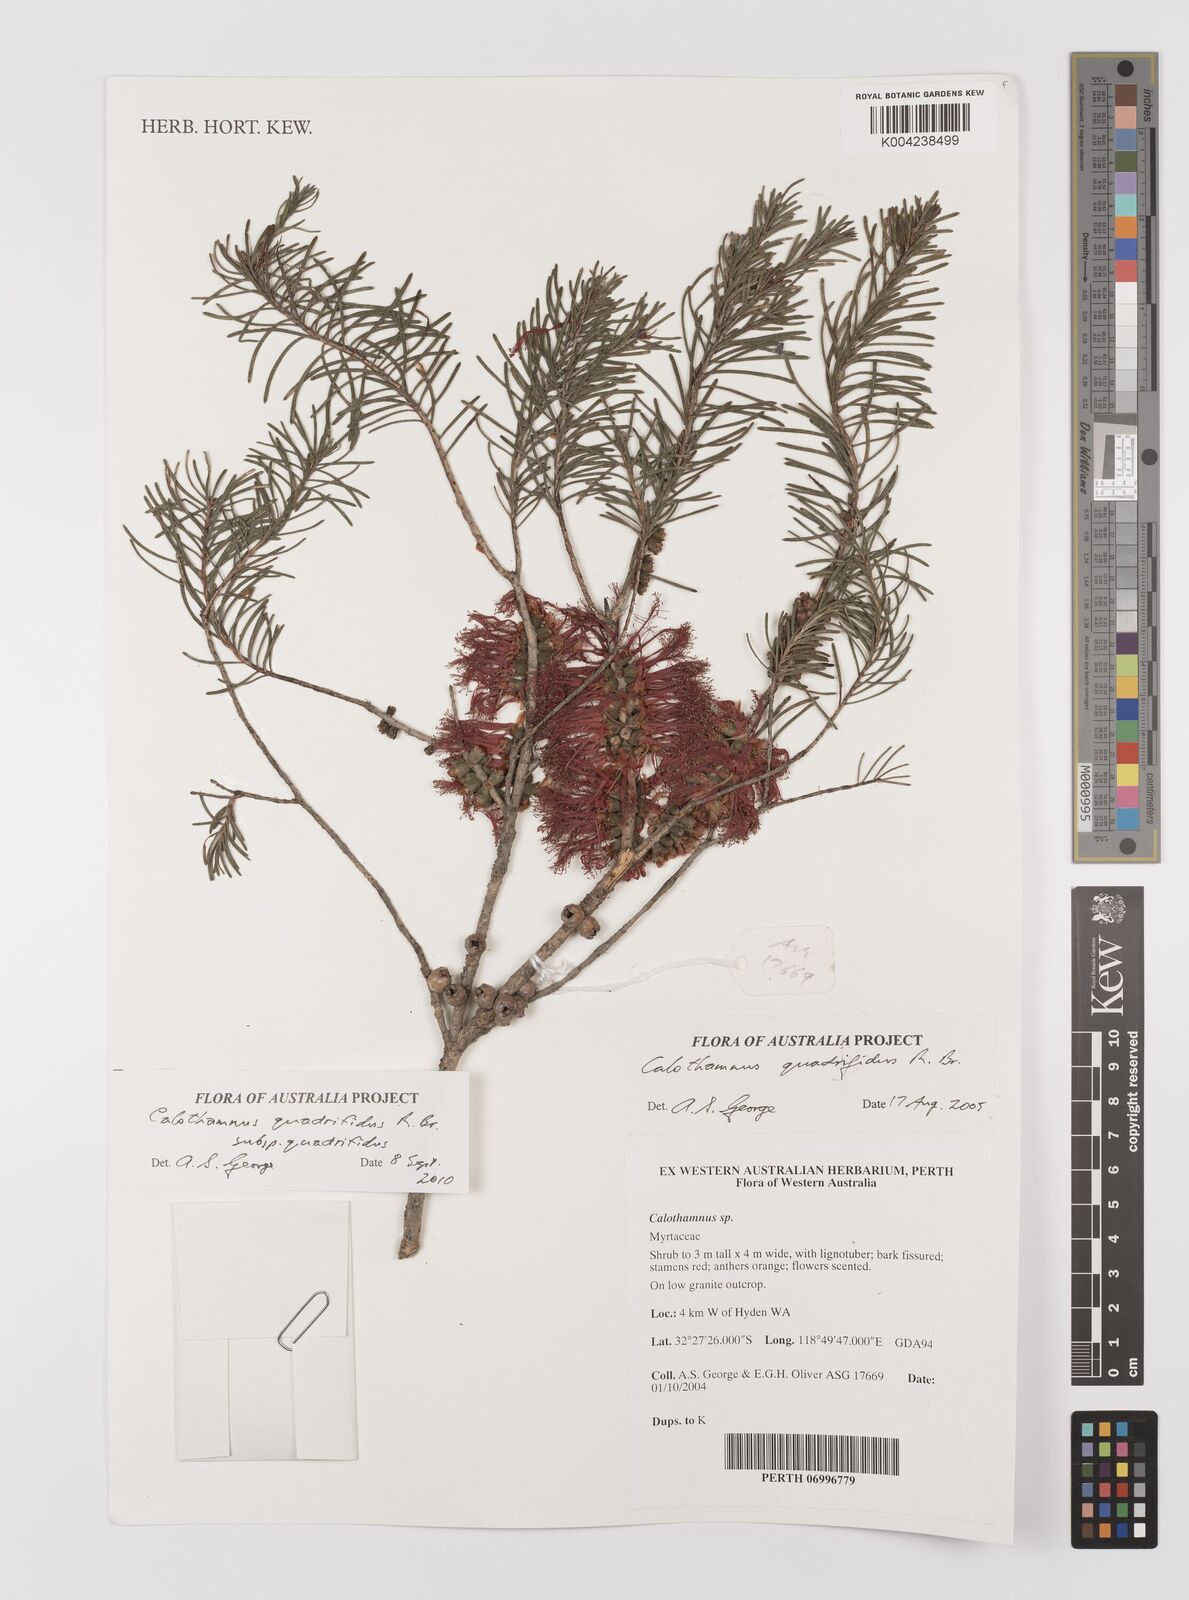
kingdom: Plantae
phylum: Tracheophyta
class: Magnoliopsida
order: Myrtales
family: Myrtaceae
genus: Melaleuca
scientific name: Melaleuca quadrifida
